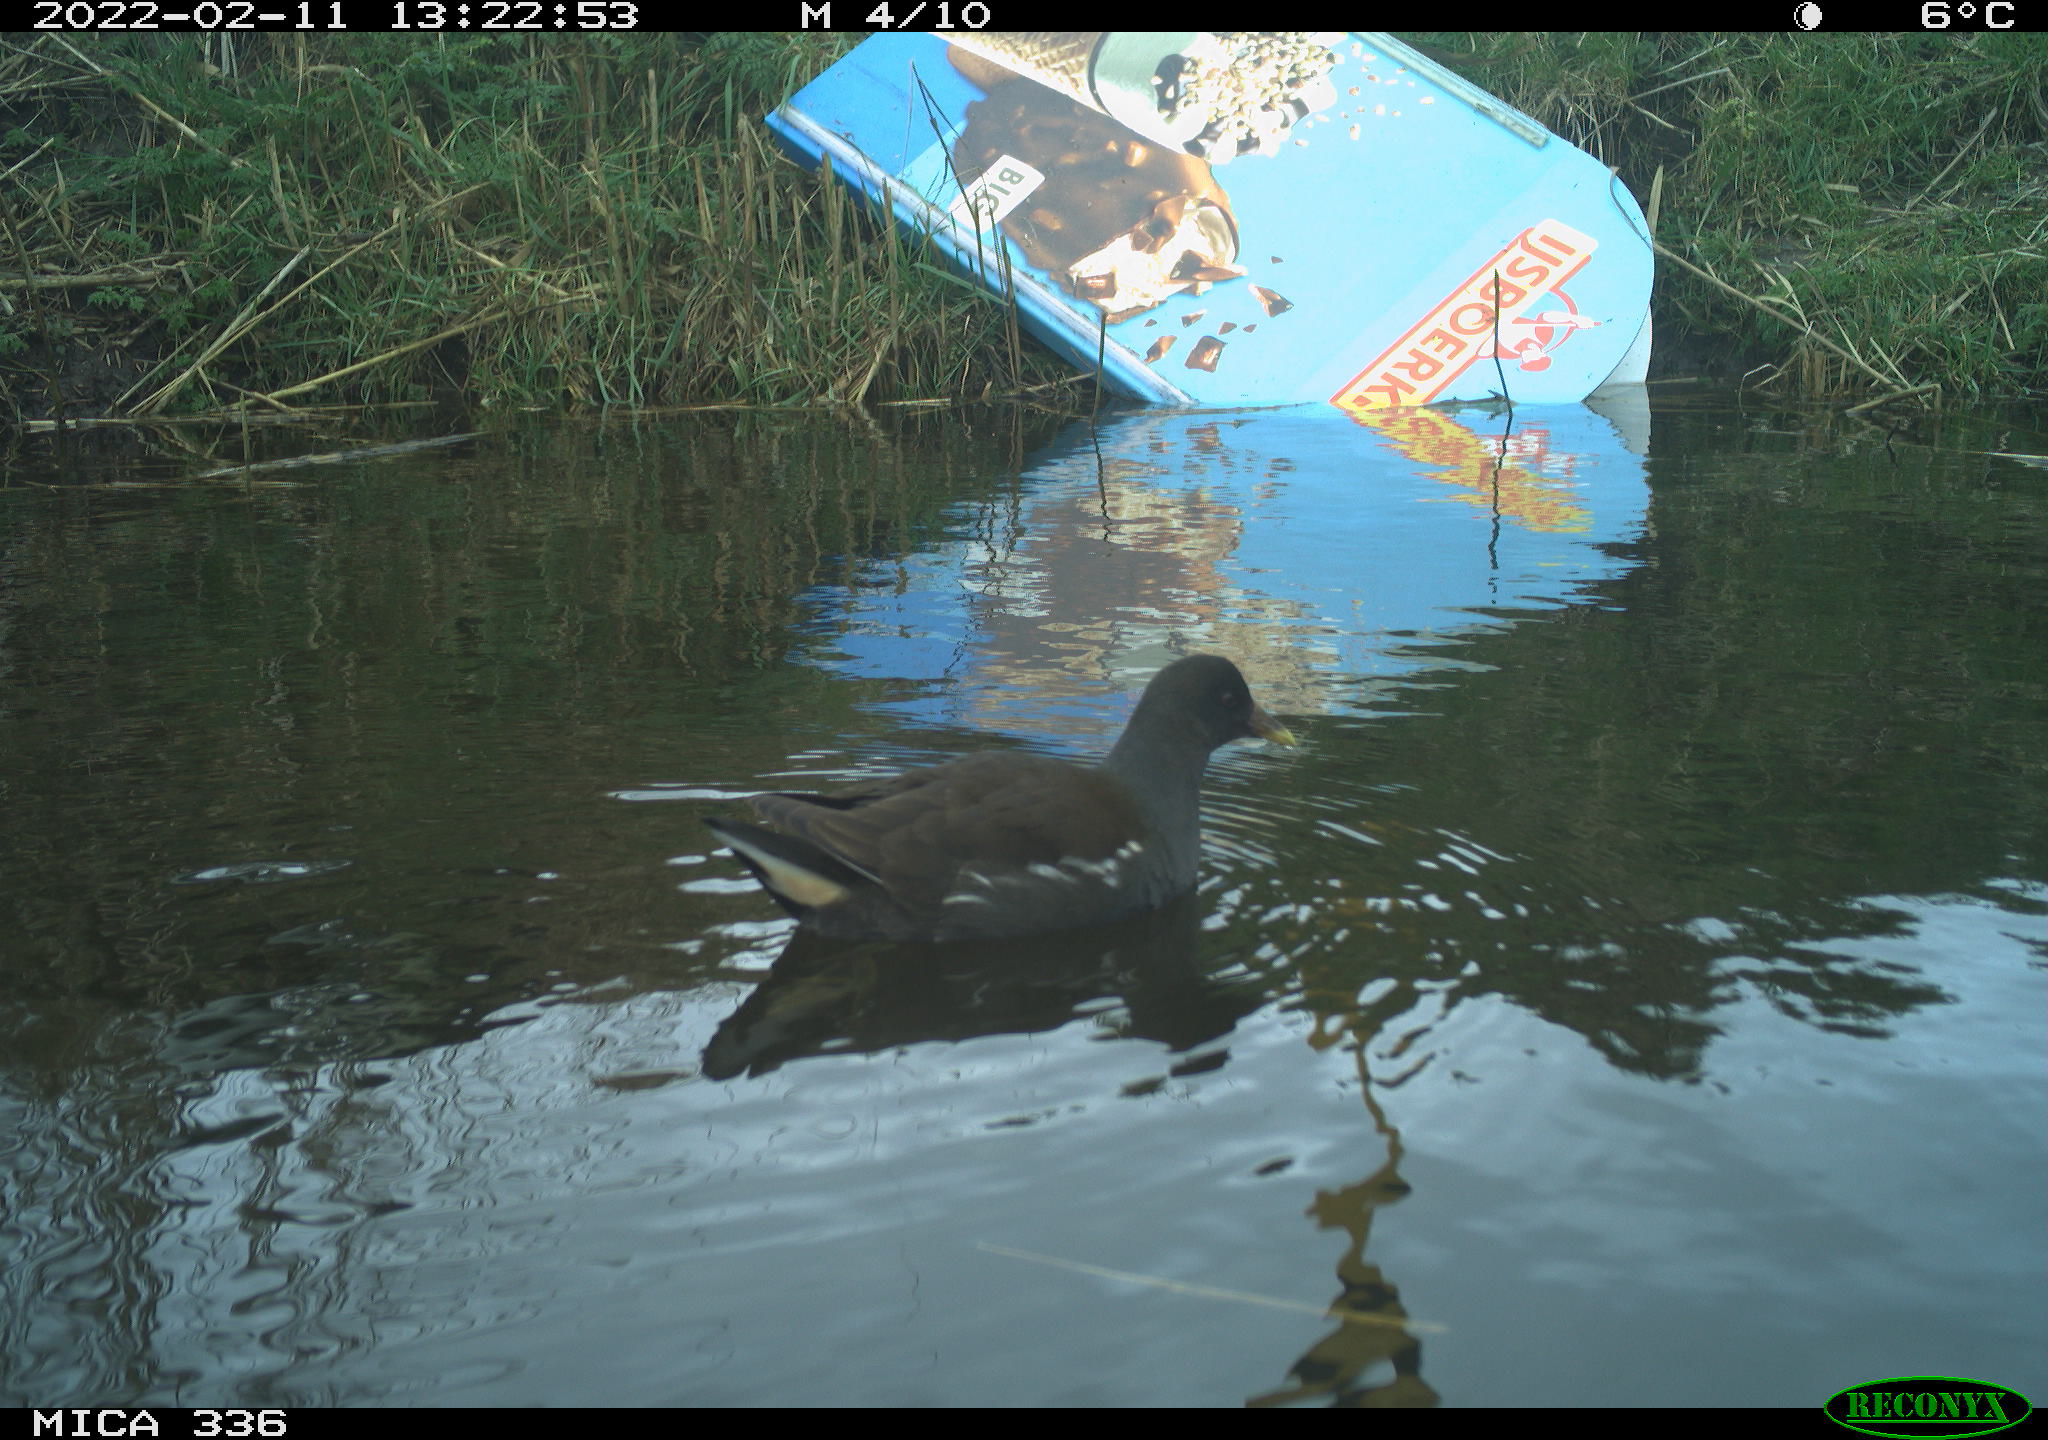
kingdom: Animalia
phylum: Chordata
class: Aves
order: Gruiformes
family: Rallidae
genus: Gallinula
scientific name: Gallinula chloropus
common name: Common moorhen
